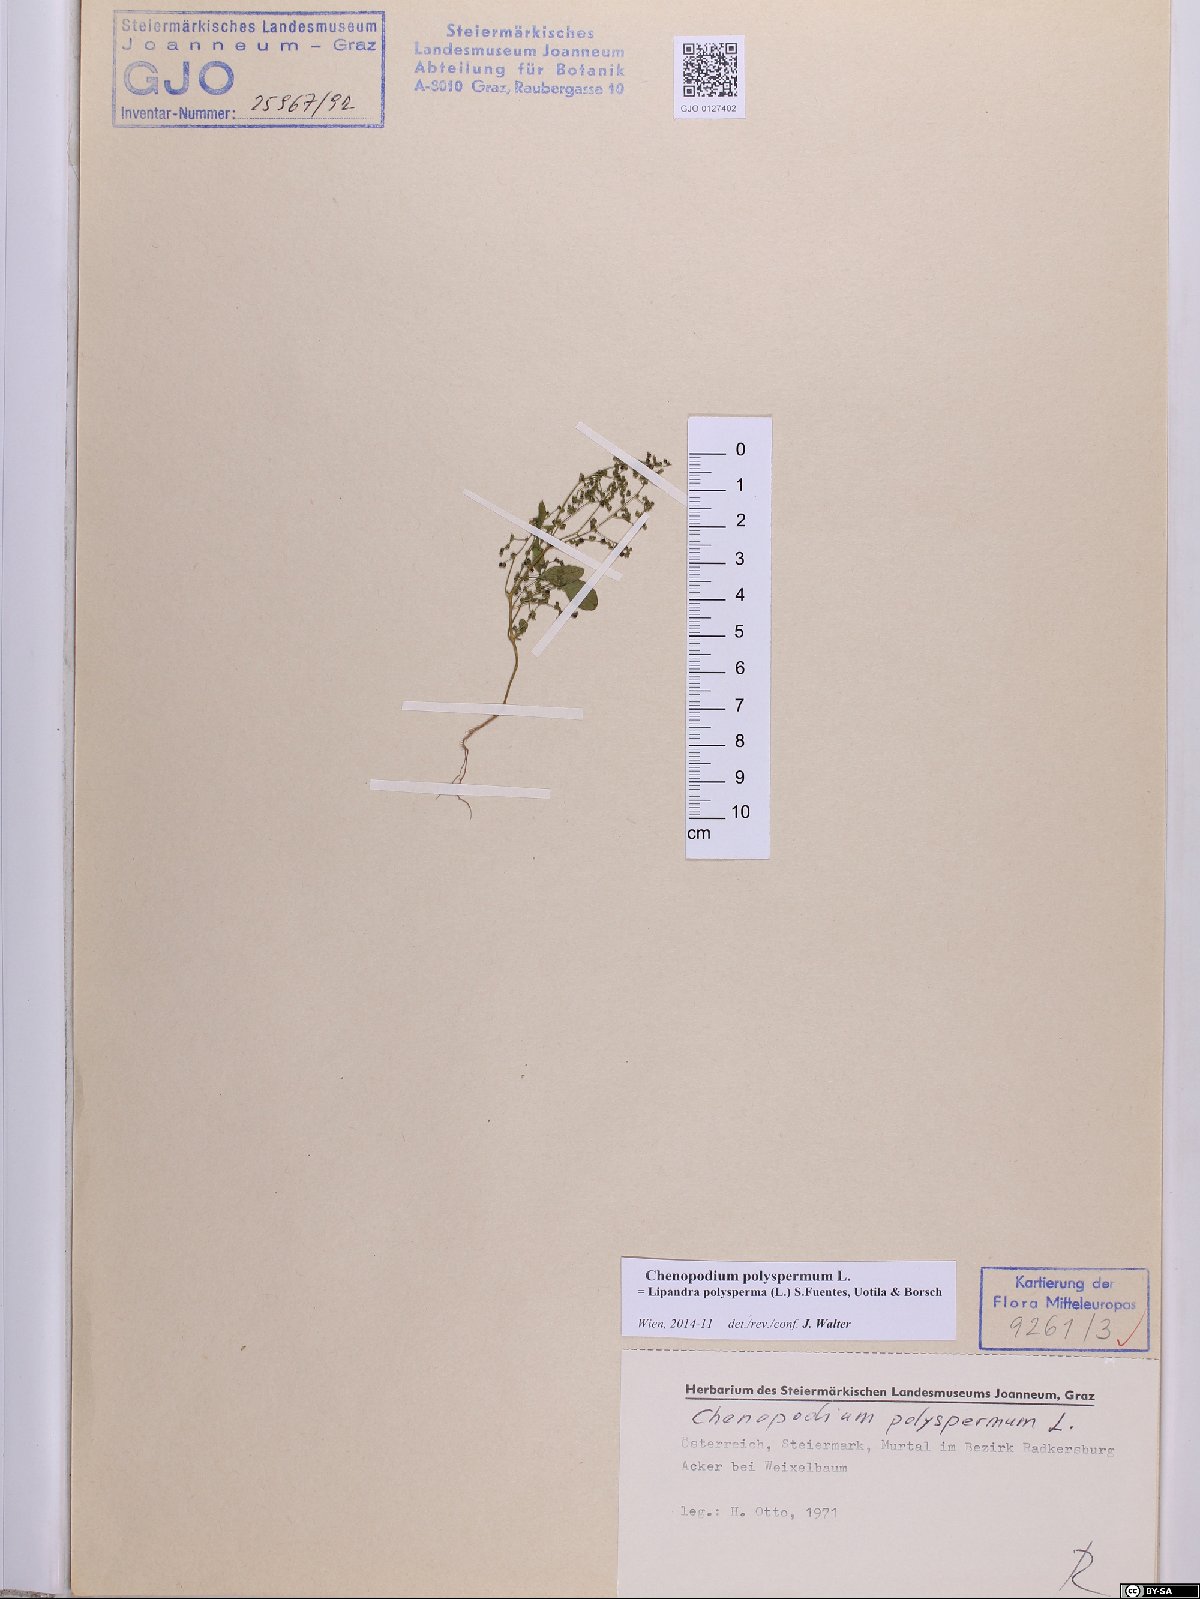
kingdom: Plantae
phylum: Tracheophyta
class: Magnoliopsida
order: Caryophyllales
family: Amaranthaceae
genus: Lipandra
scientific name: Lipandra polysperma
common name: Many-seed goosefoot
